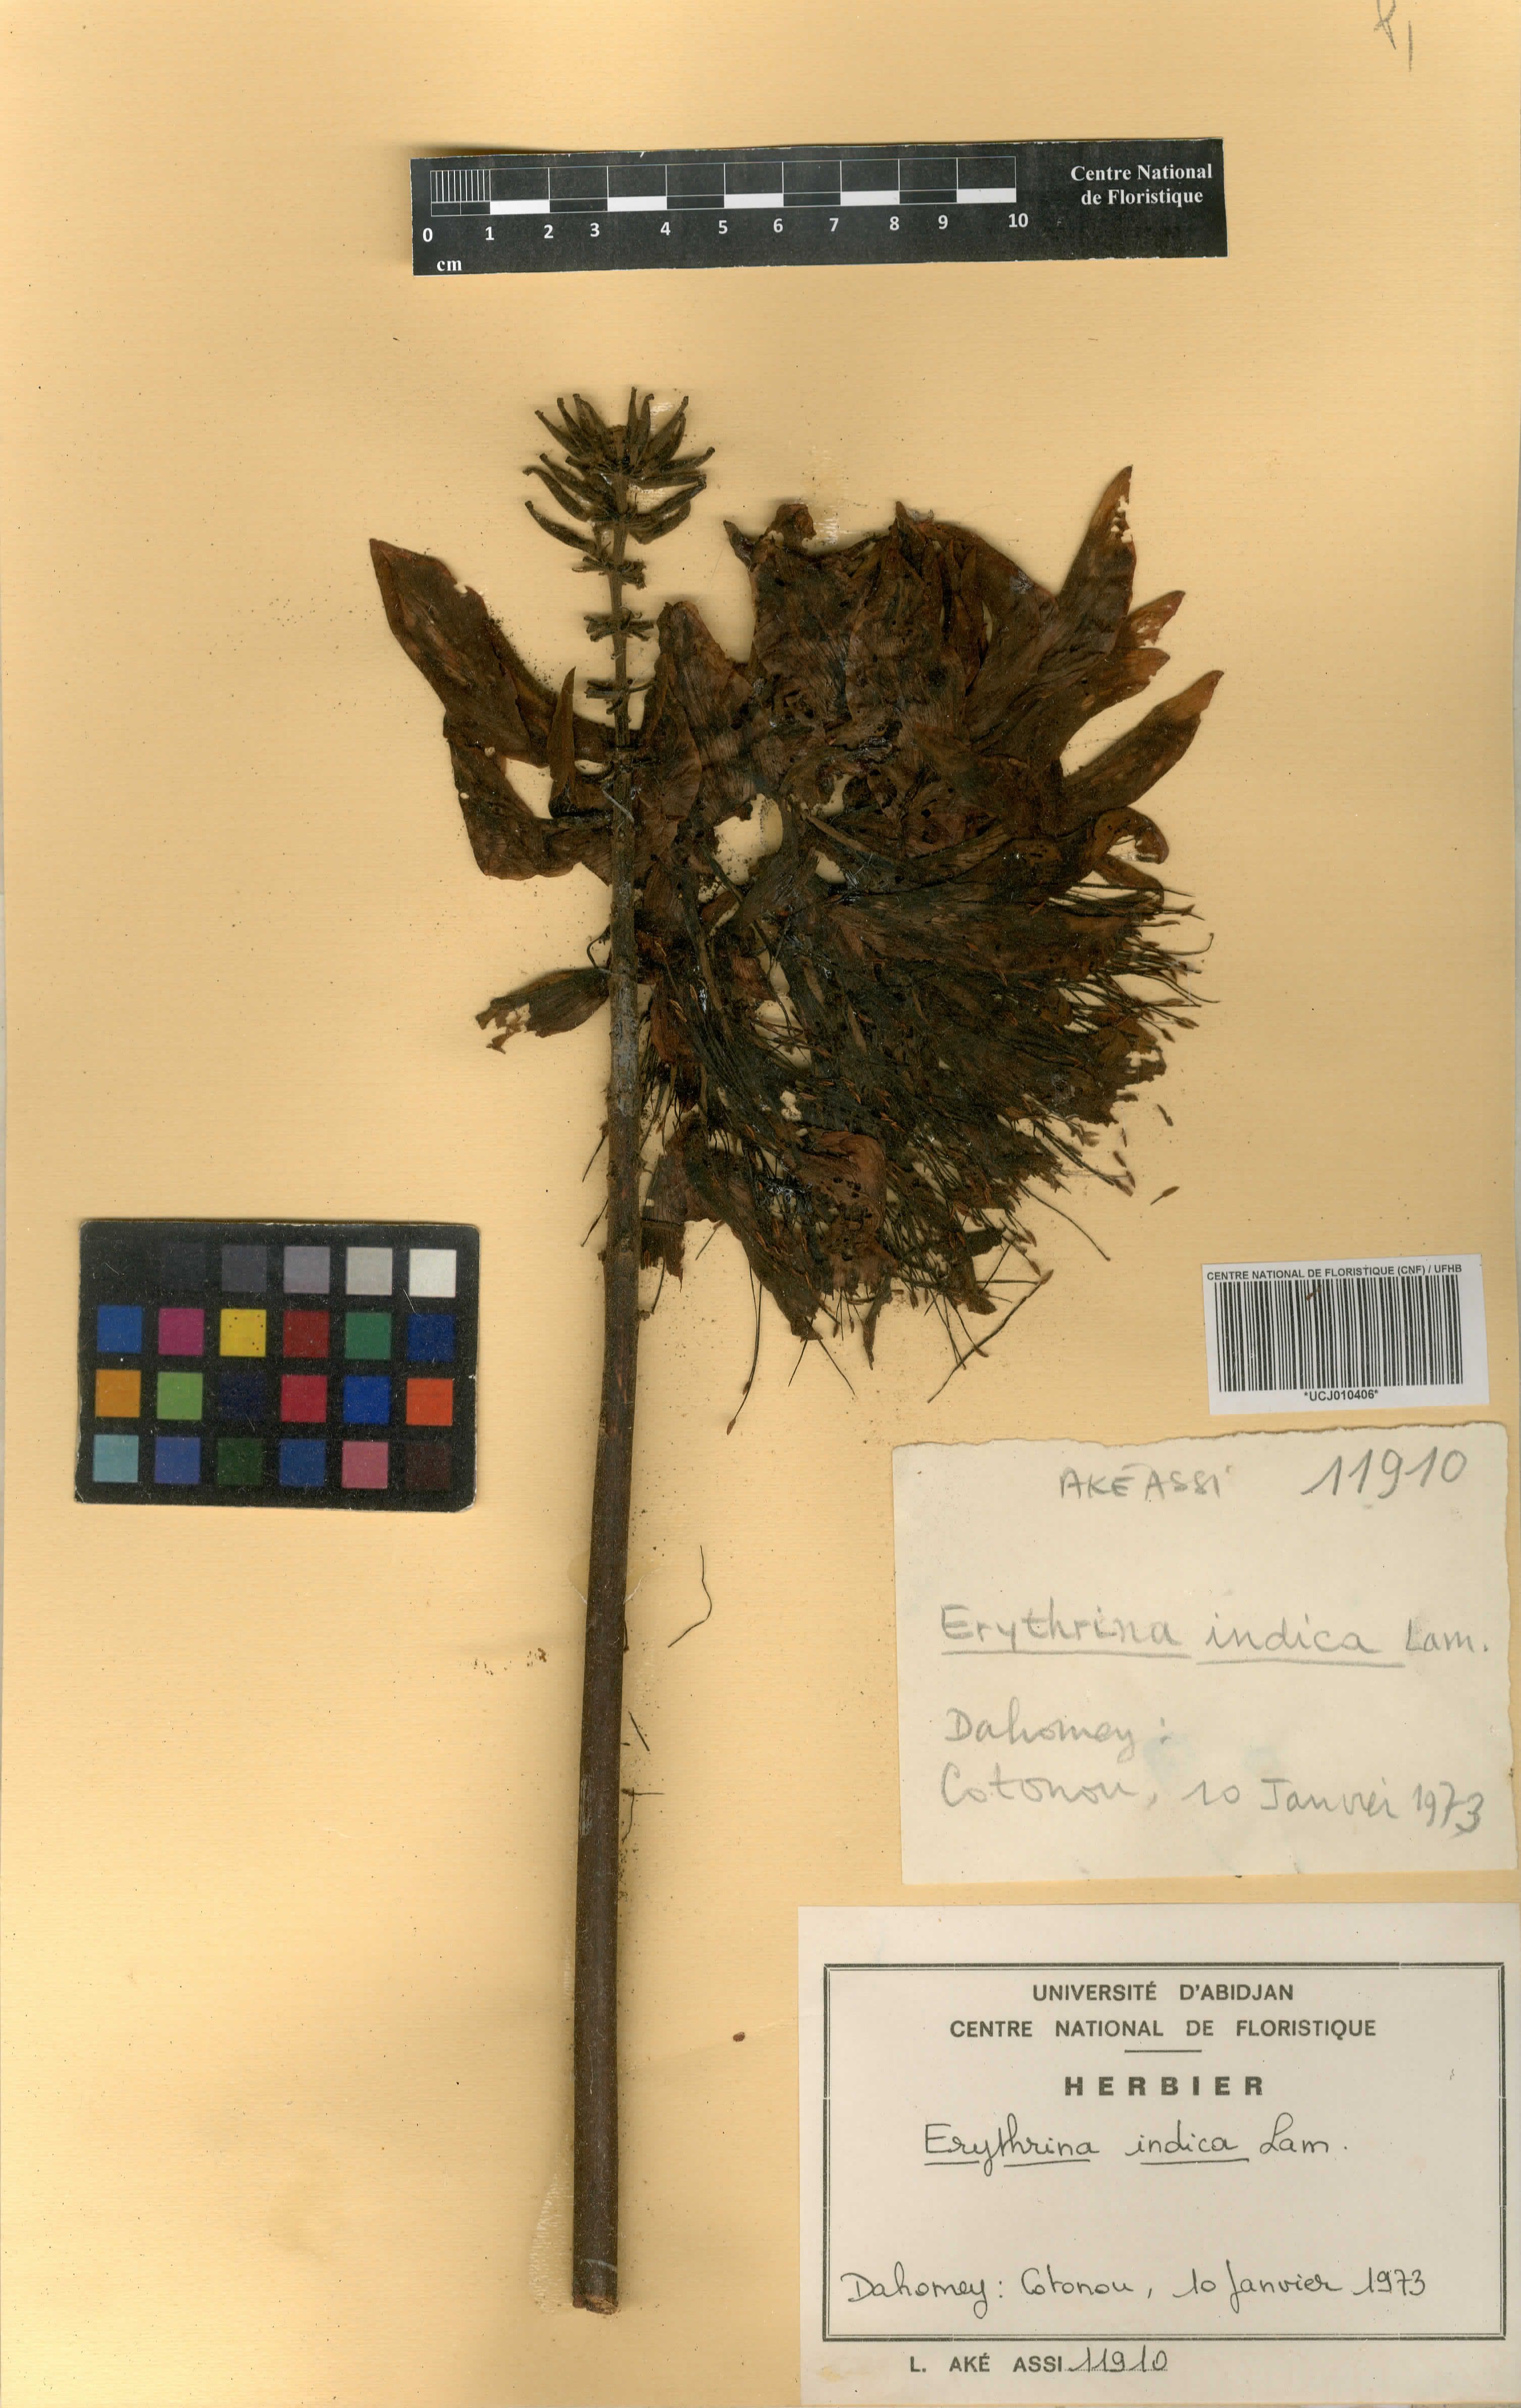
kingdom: Plantae
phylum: Tracheophyta
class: Magnoliopsida
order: Fabales
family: Fabaceae
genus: Erythrina
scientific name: Erythrina variegata
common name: Indian coral tree
